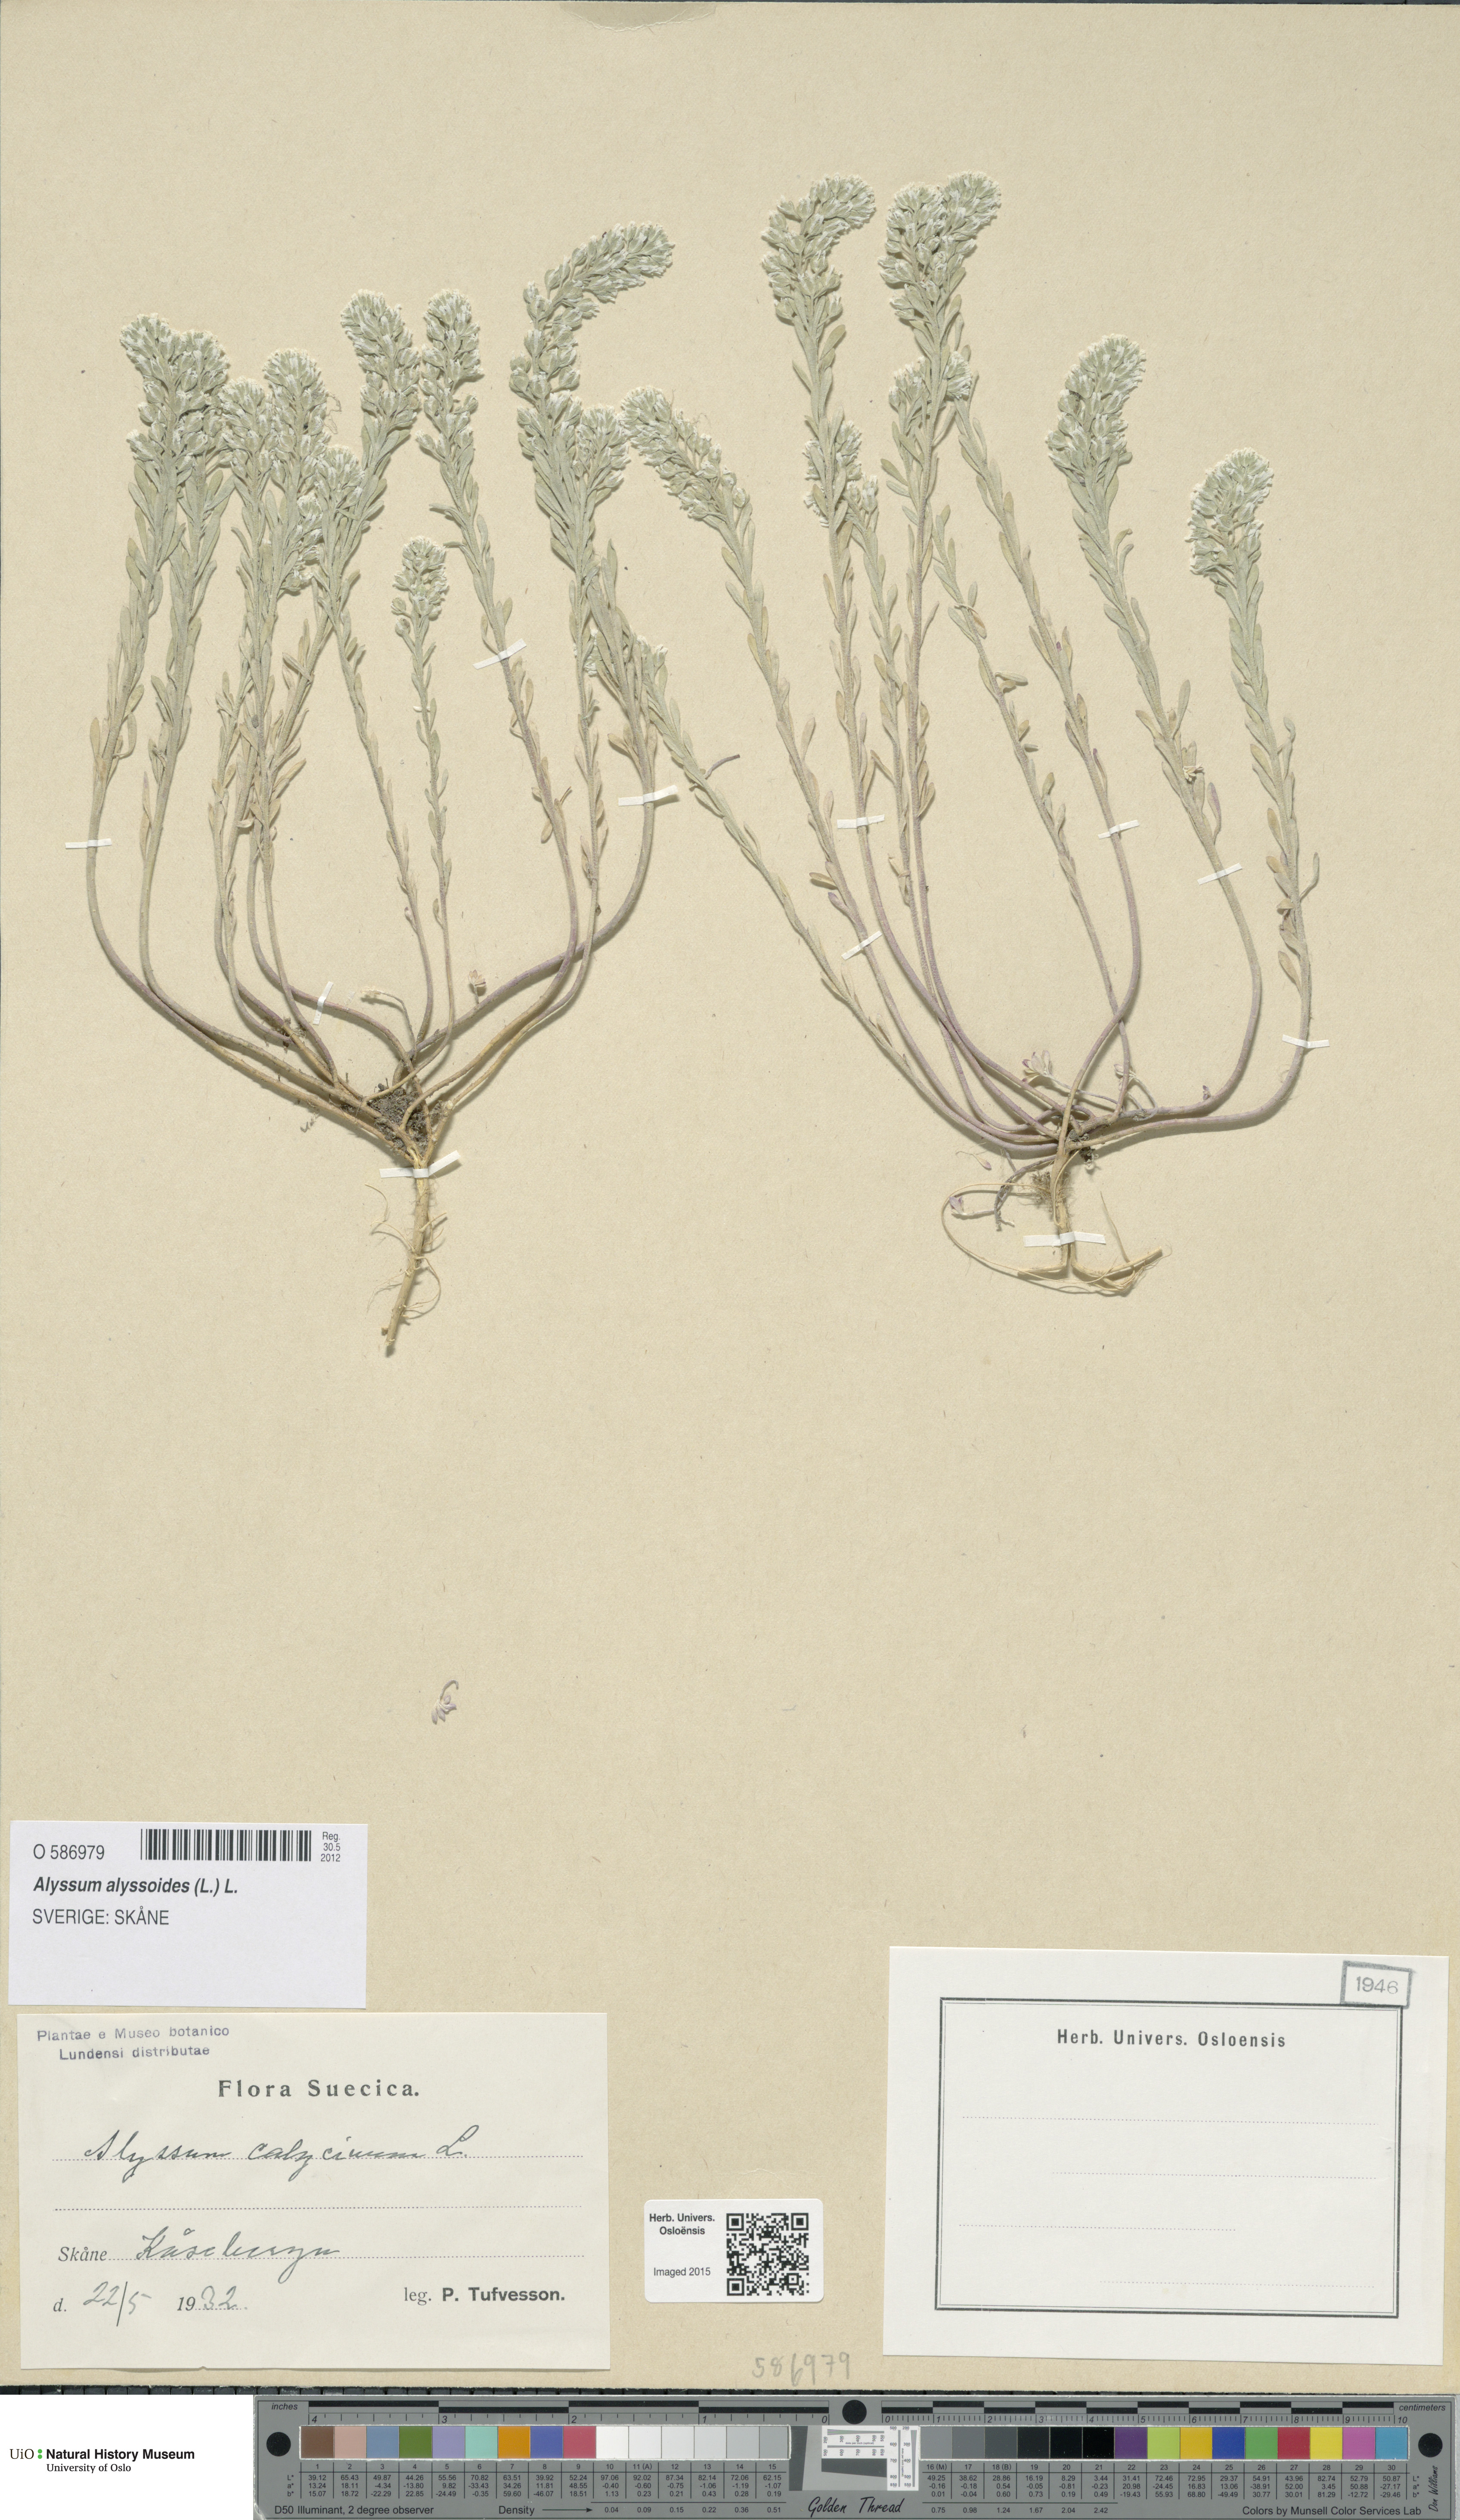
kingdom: Plantae
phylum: Tracheophyta
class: Magnoliopsida
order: Brassicales
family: Brassicaceae
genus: Alyssum
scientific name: Alyssum alyssoides
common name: Small alison
